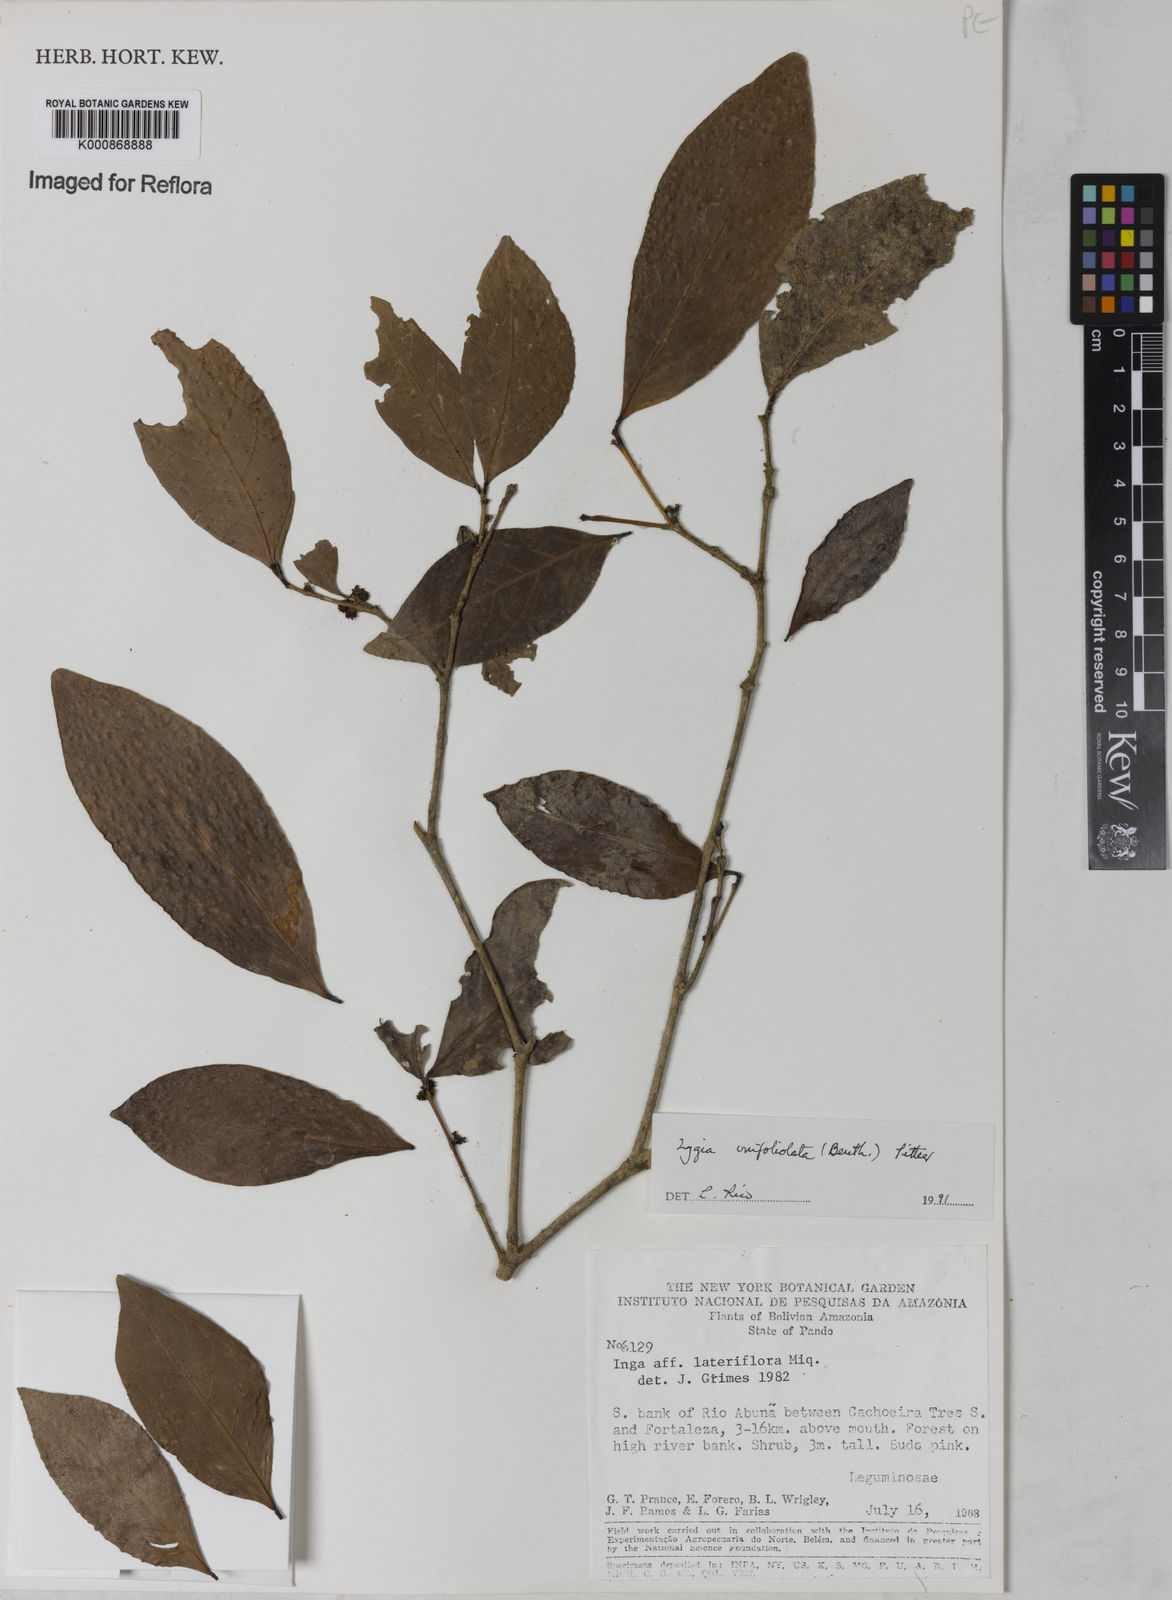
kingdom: Plantae
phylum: Tracheophyta
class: Magnoliopsida
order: Fabales
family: Fabaceae
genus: Zygia
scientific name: Zygia unifoliolata
